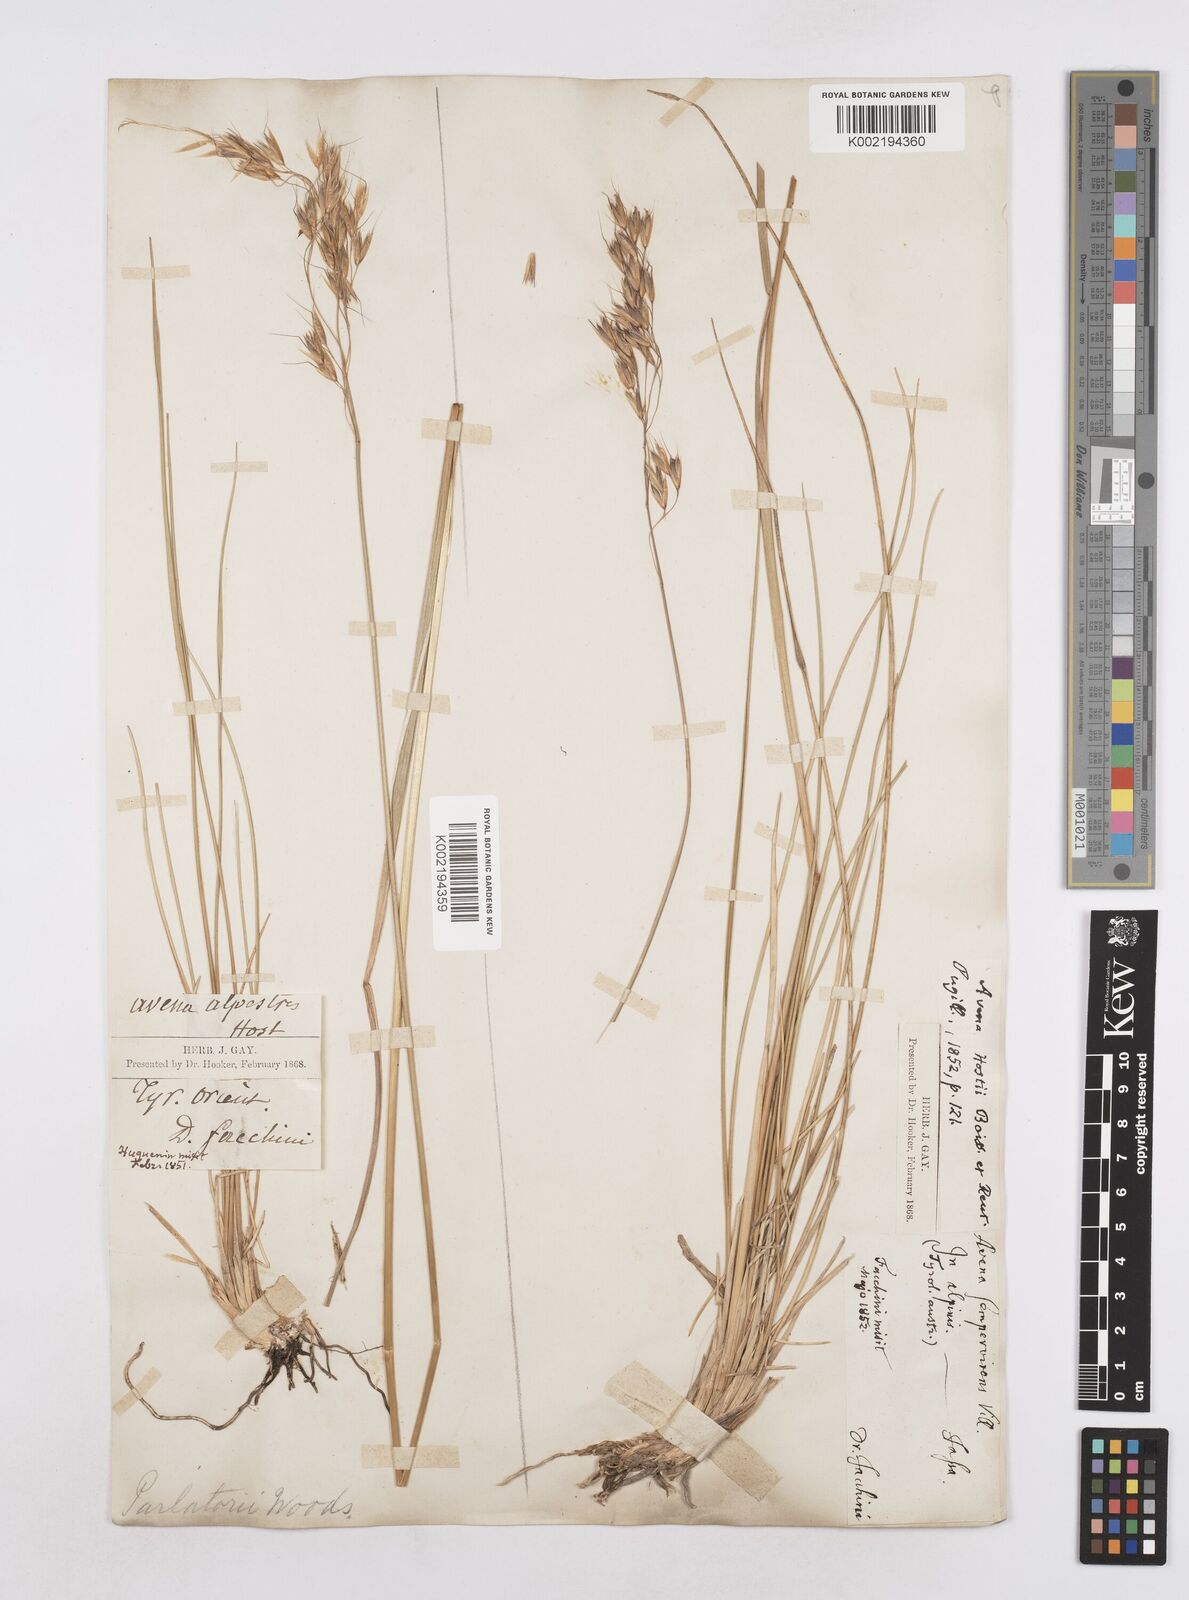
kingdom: Plantae
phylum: Tracheophyta
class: Liliopsida
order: Poales
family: Poaceae
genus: Helictotrichon
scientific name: Helictotrichon parlatorei
